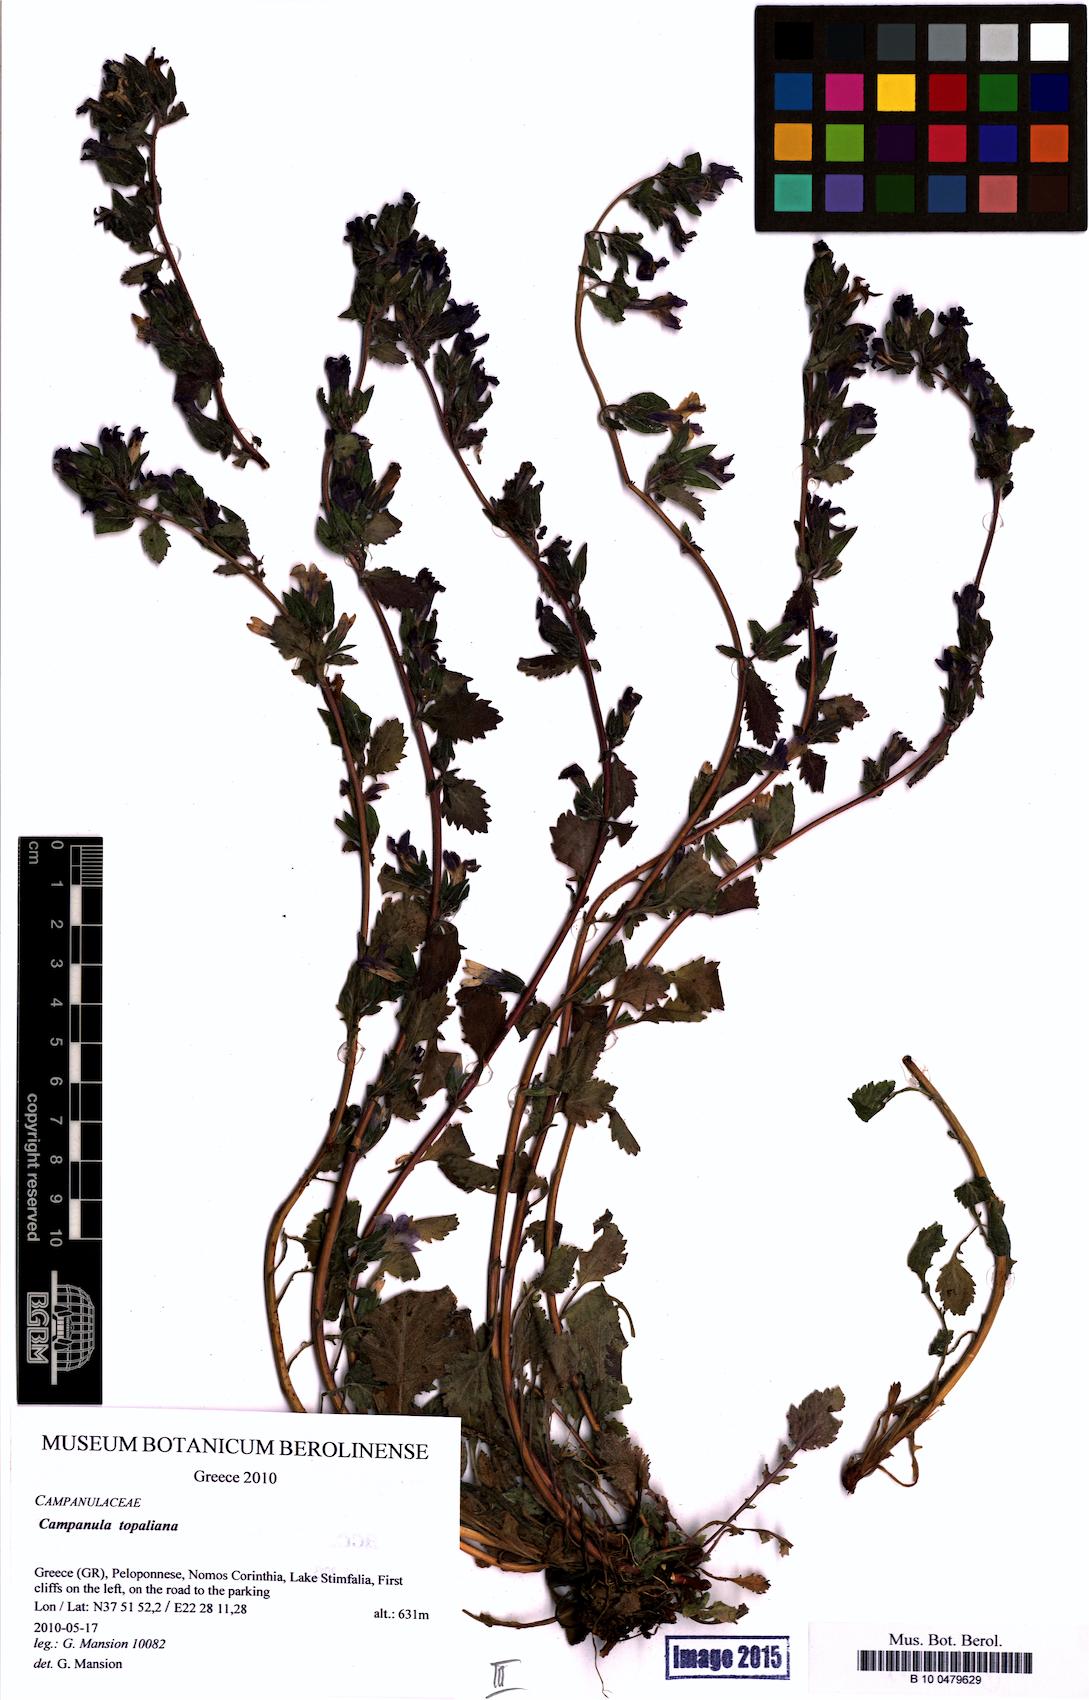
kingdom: Plantae
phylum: Tracheophyta
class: Magnoliopsida
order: Asterales
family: Campanulaceae
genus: Campanula
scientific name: Campanula topaliana
